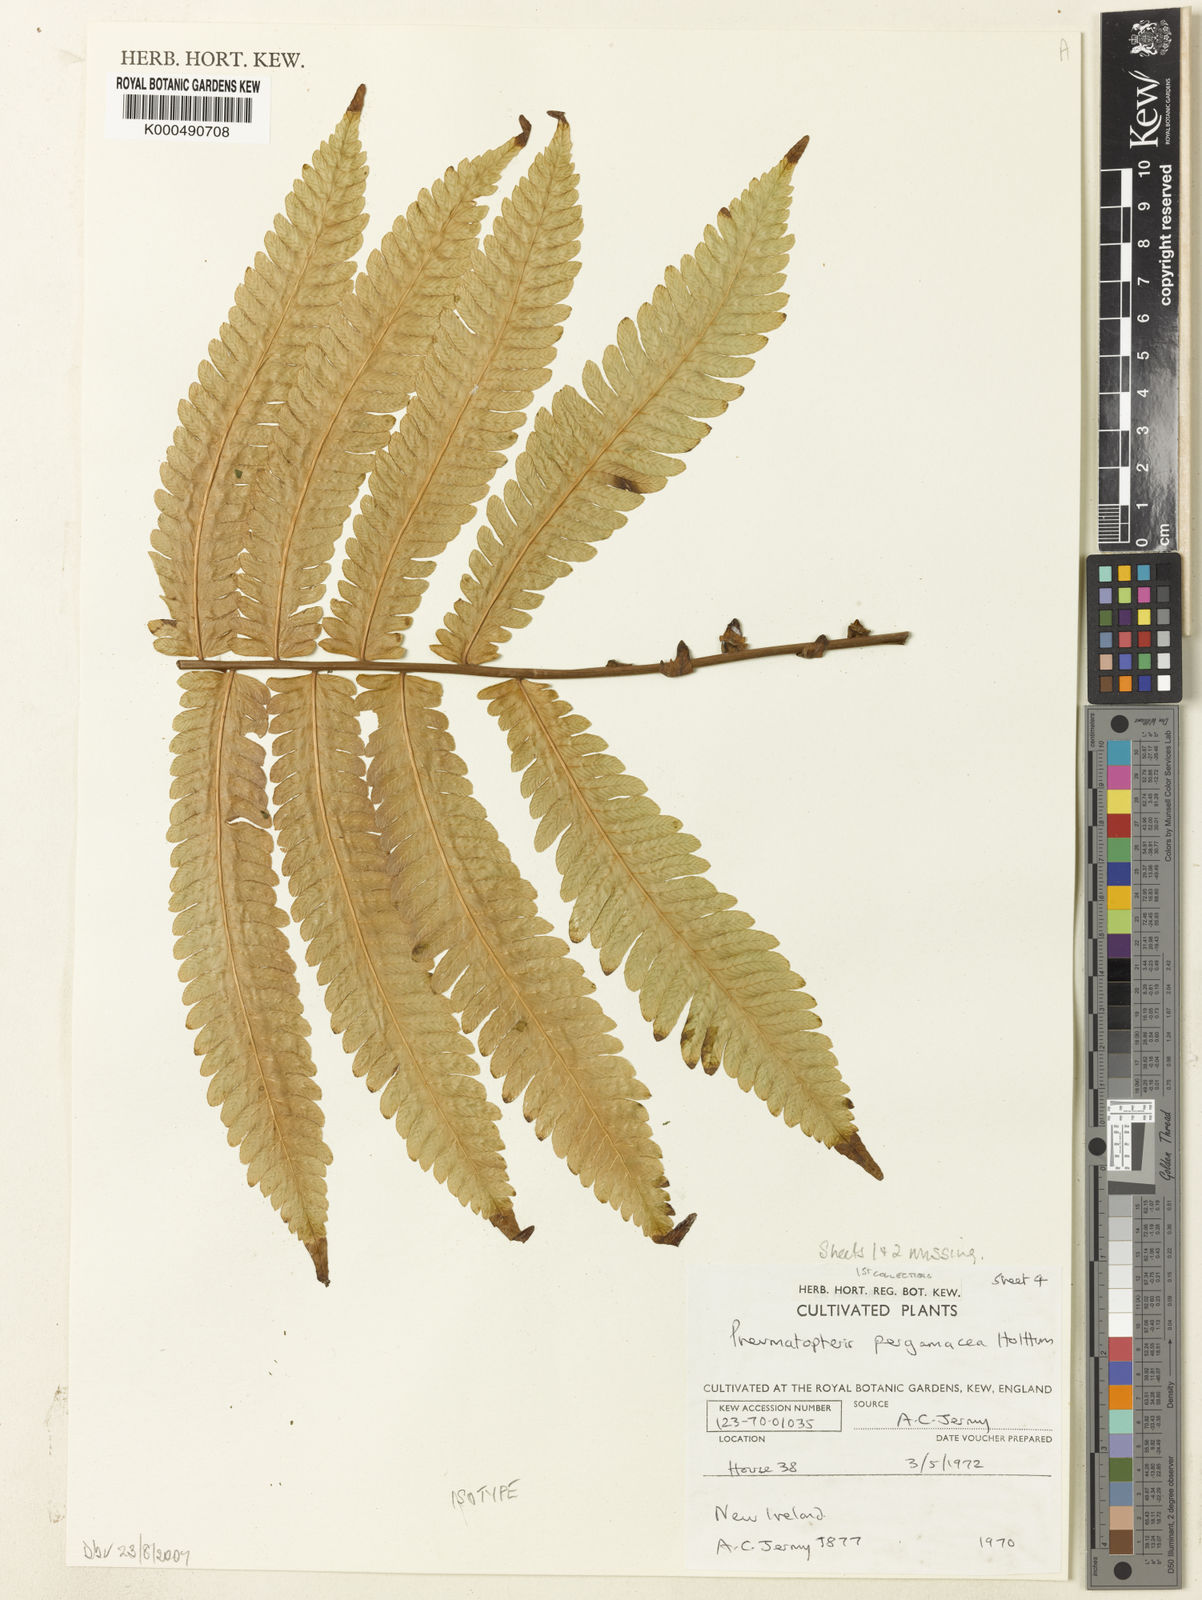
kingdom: Plantae
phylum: Tracheophyta
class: Polypodiopsida
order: Polypodiales
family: Thelypteridaceae
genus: Reholttumia
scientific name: Reholttumia pergamacea
